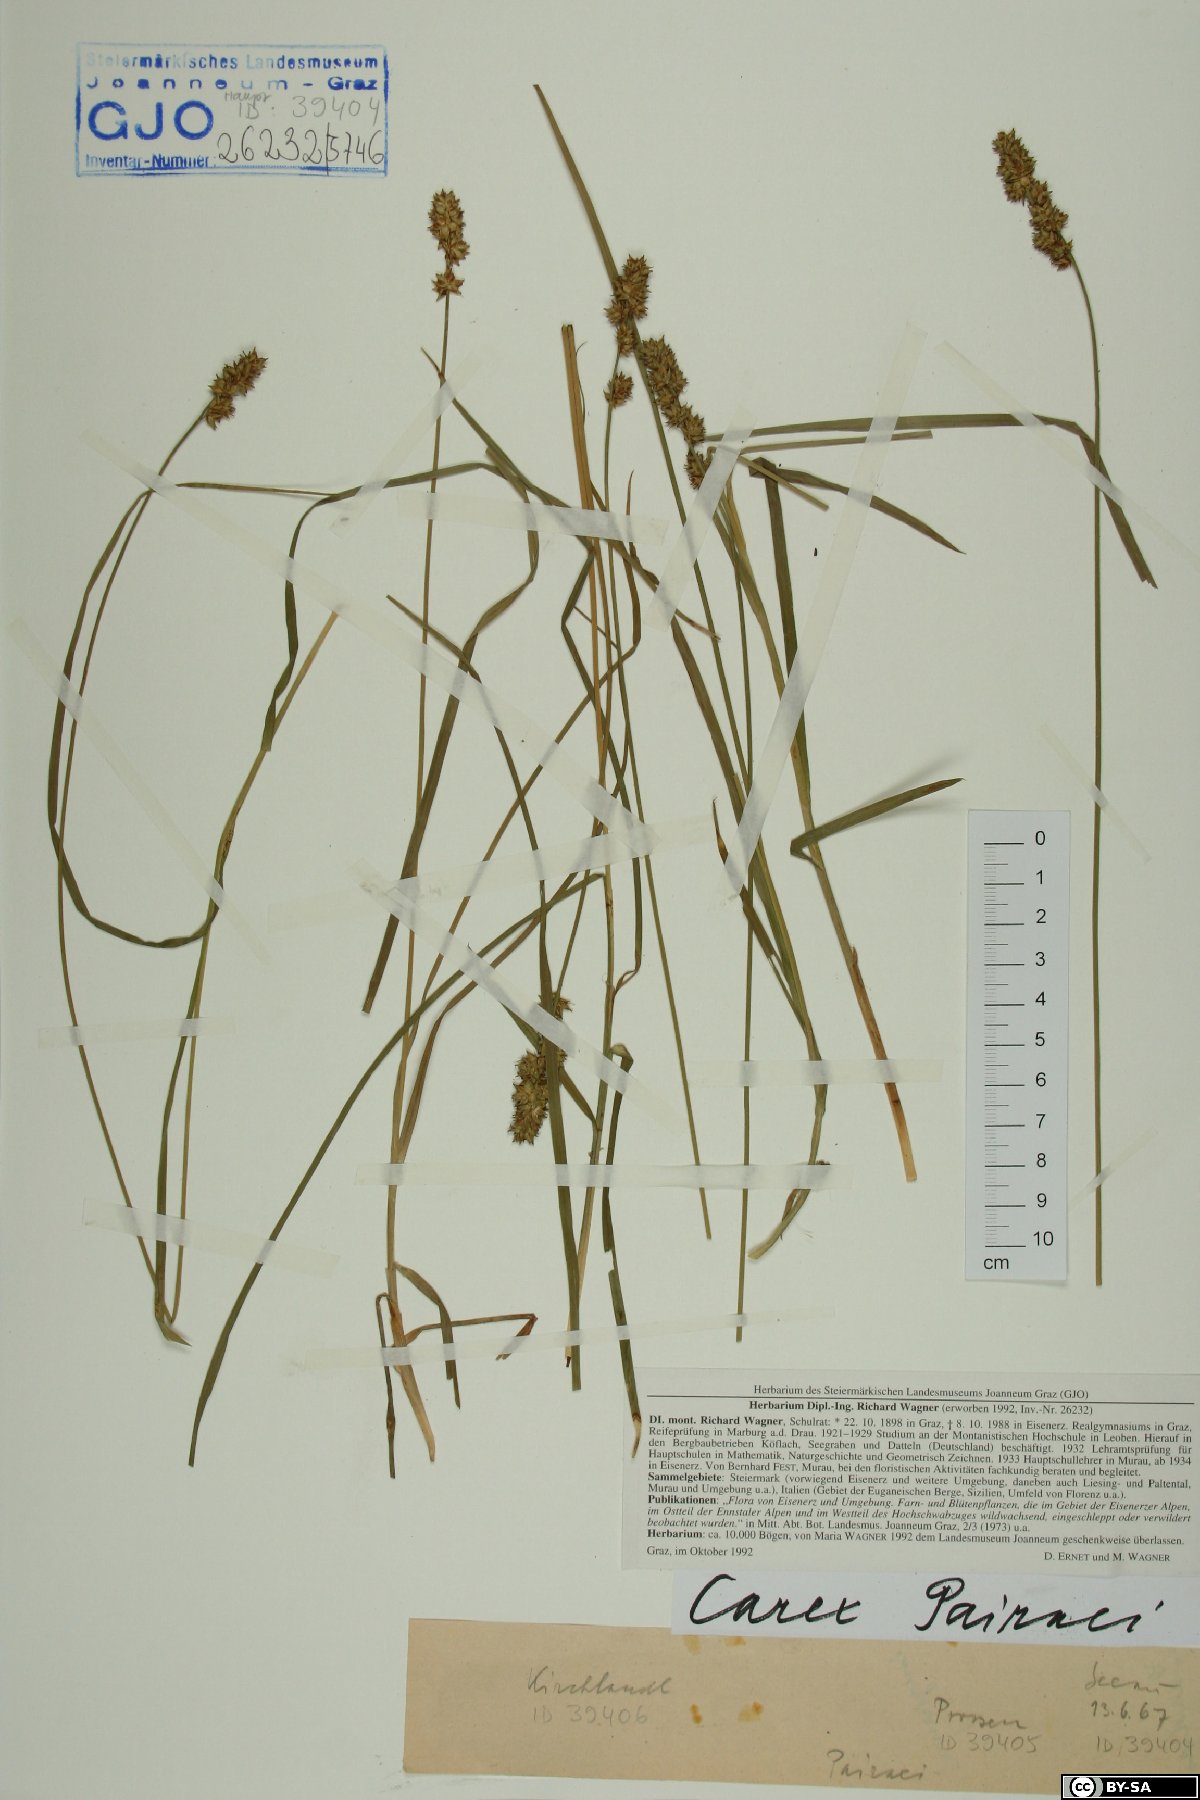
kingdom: Plantae
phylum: Tracheophyta
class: Liliopsida
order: Poales
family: Cyperaceae
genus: Carex
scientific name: Carex pairae
